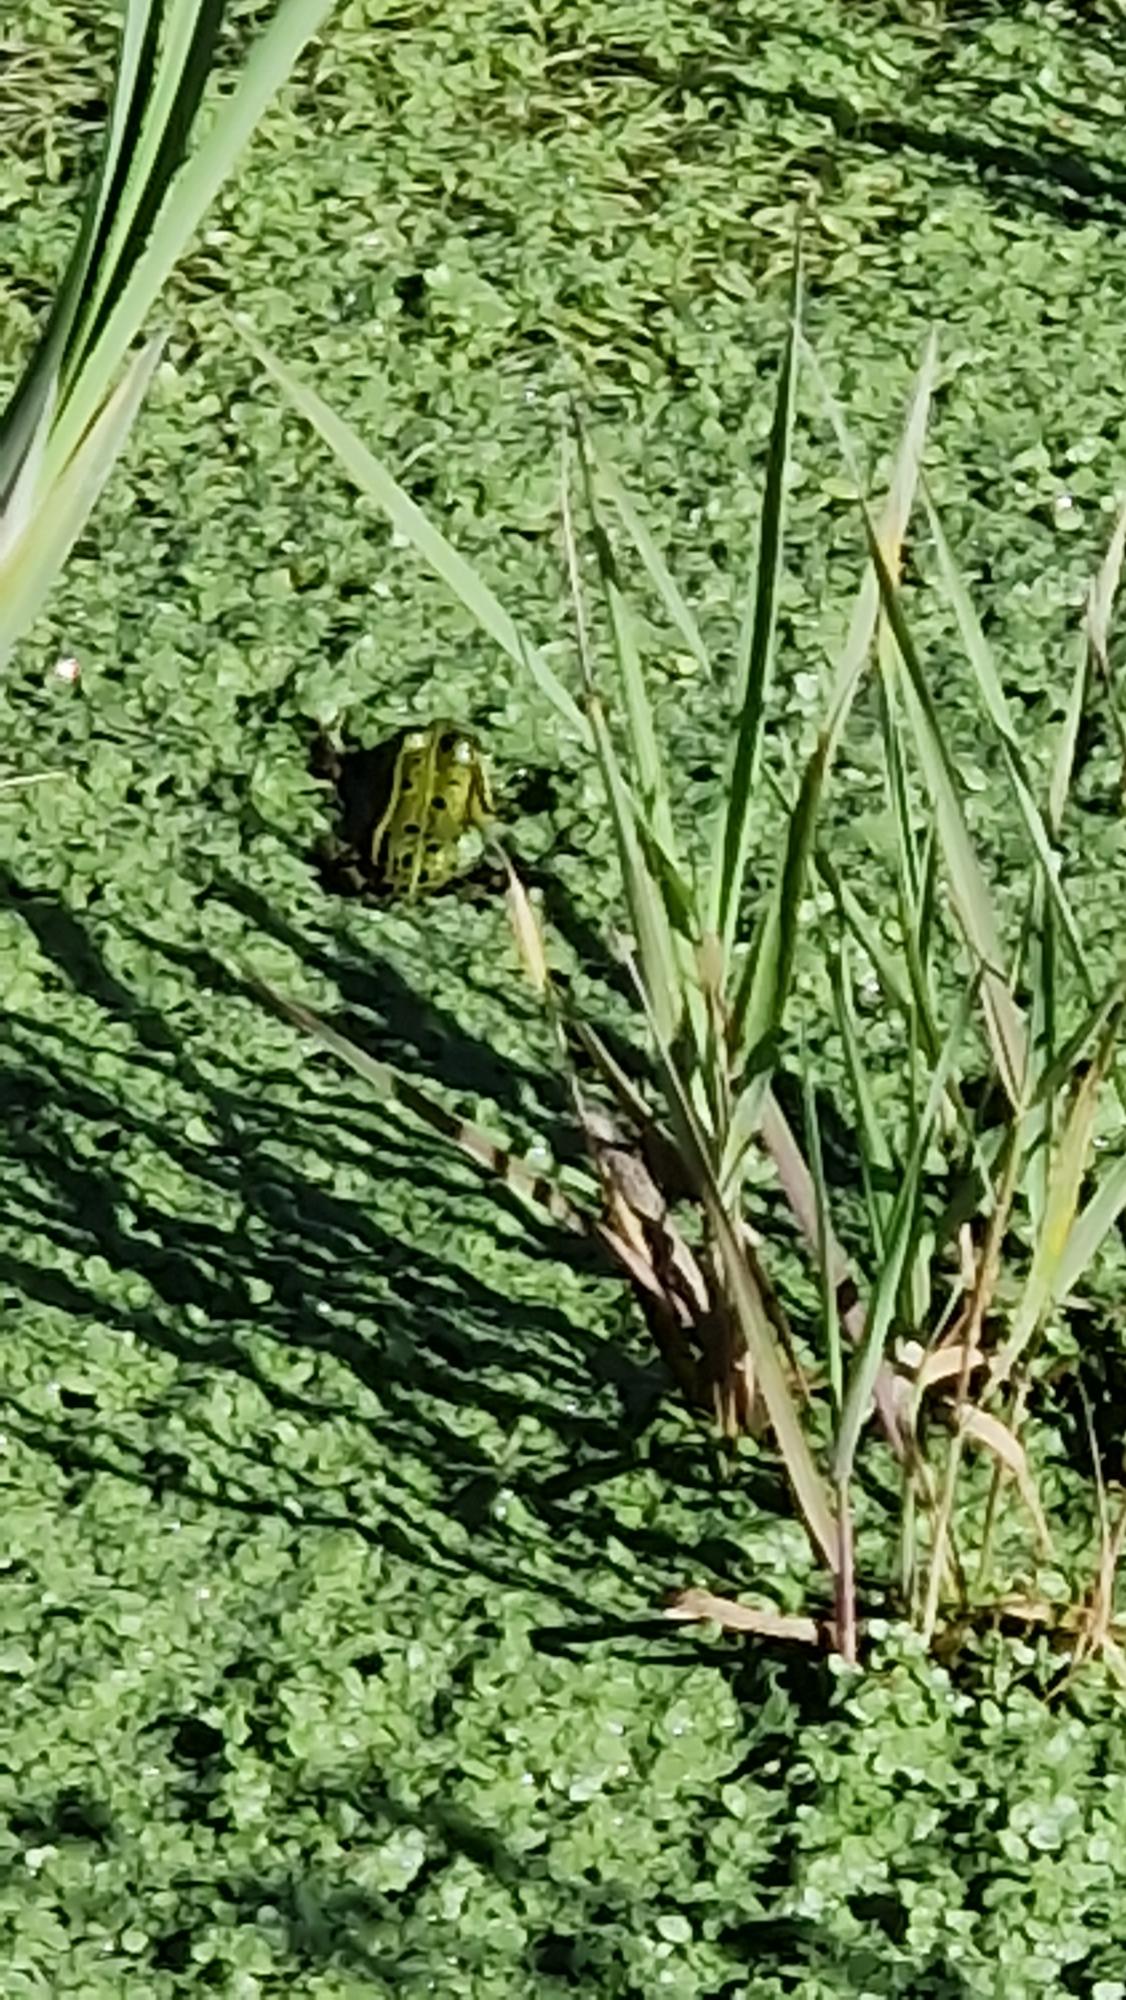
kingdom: Animalia
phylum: Chordata
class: Amphibia
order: Anura
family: Ranidae
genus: Pelophylax
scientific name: Pelophylax lessonae
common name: Grøn frø
